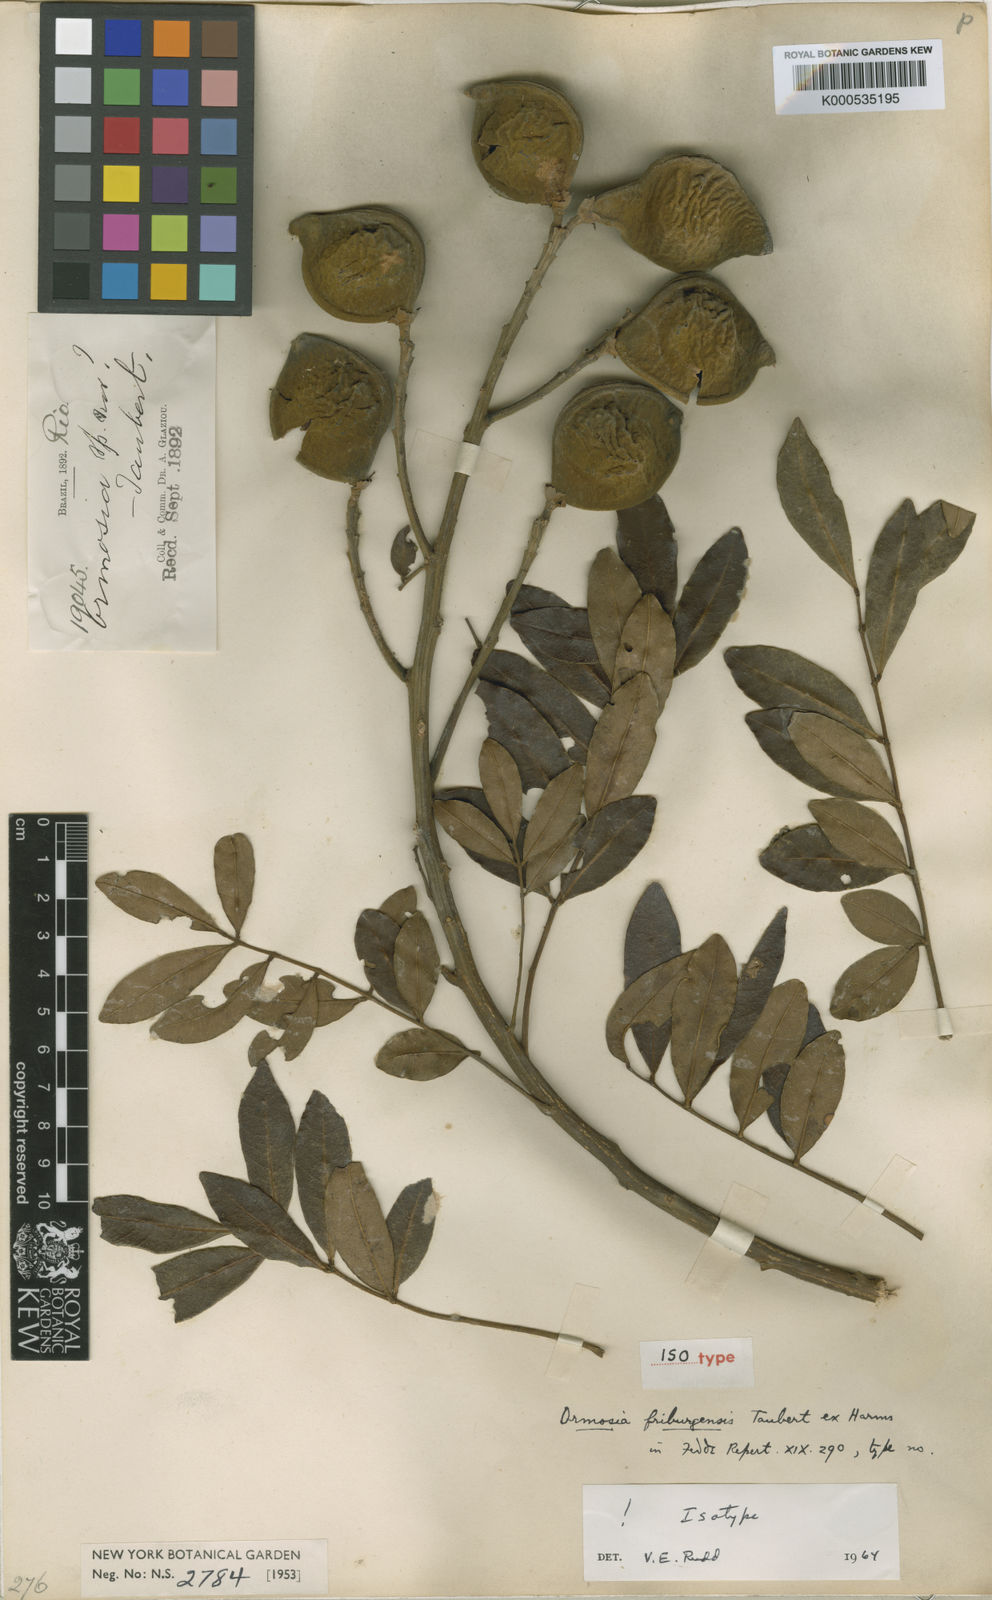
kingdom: Plantae
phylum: Tracheophyta
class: Magnoliopsida
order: Fabales
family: Fabaceae
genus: Ormosia
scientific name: Ormosia friburgensis
